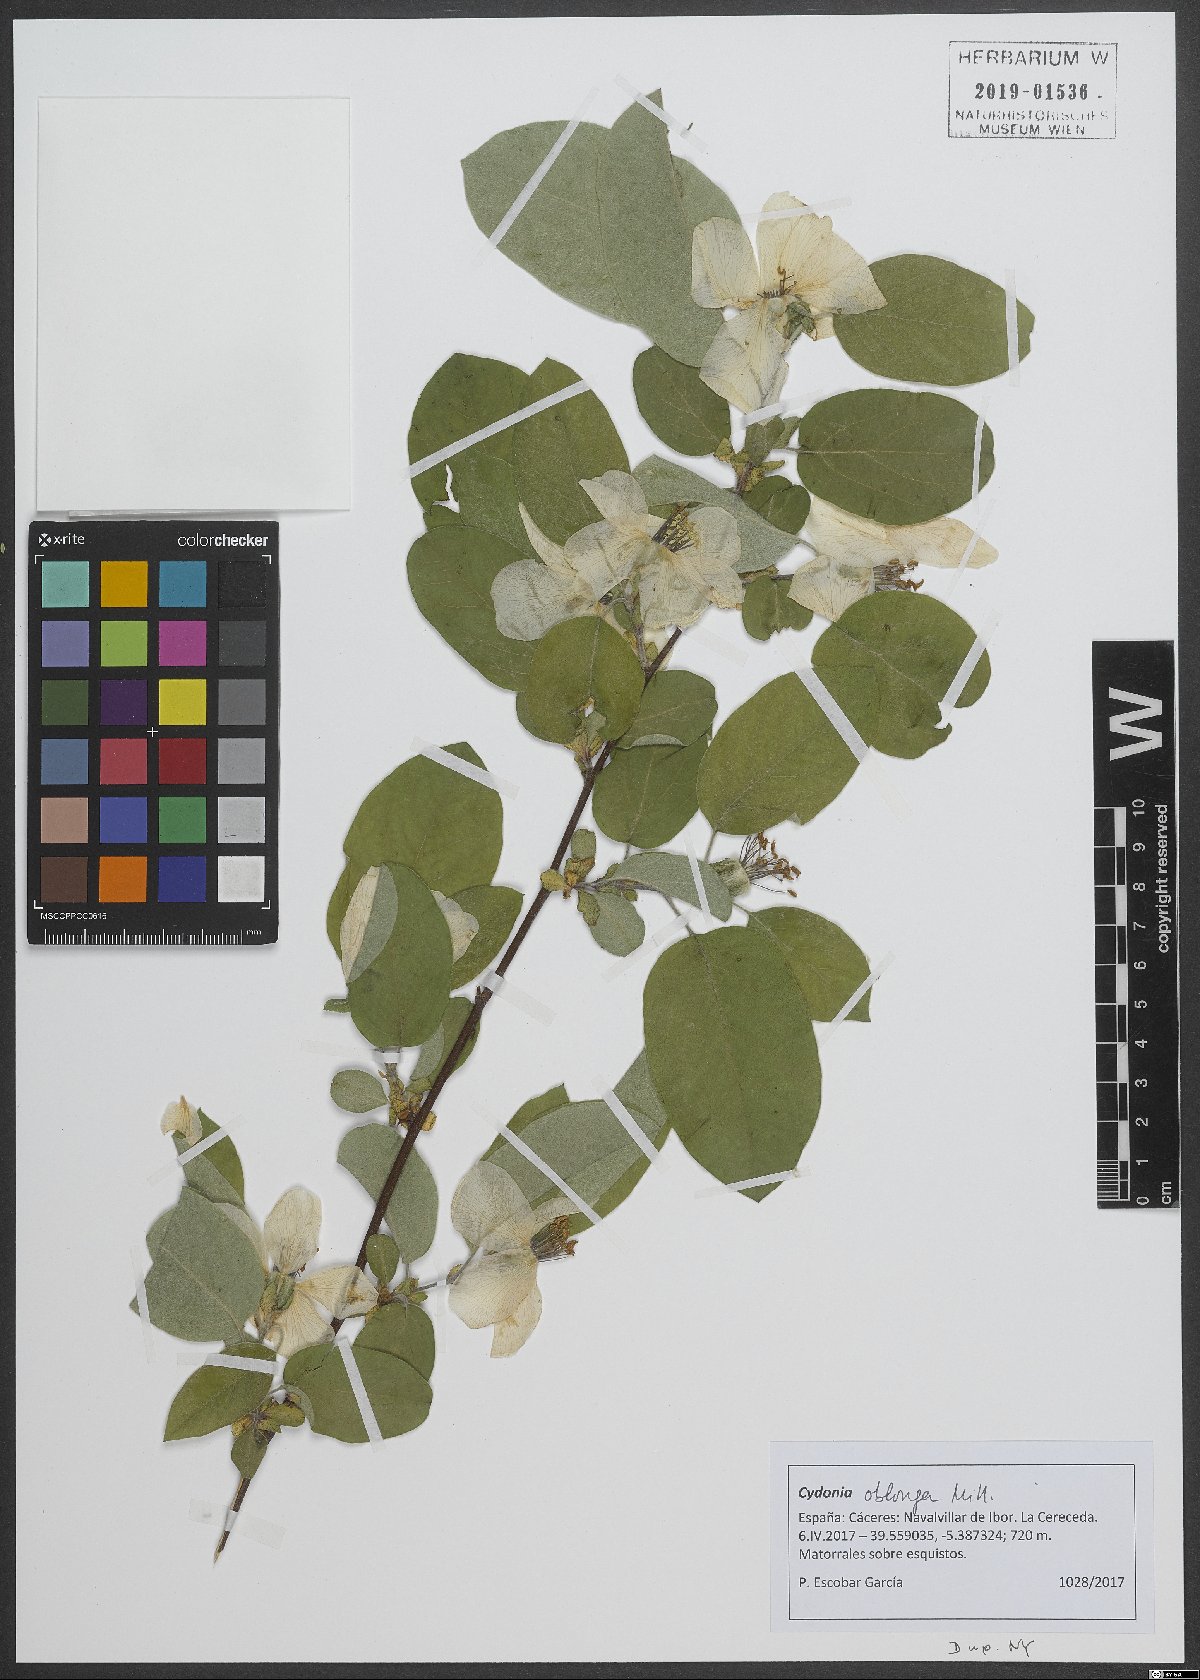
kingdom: Plantae
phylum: Tracheophyta
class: Magnoliopsida
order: Rosales
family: Rosaceae
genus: Cydonia
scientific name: Cydonia oblonga
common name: Quince
